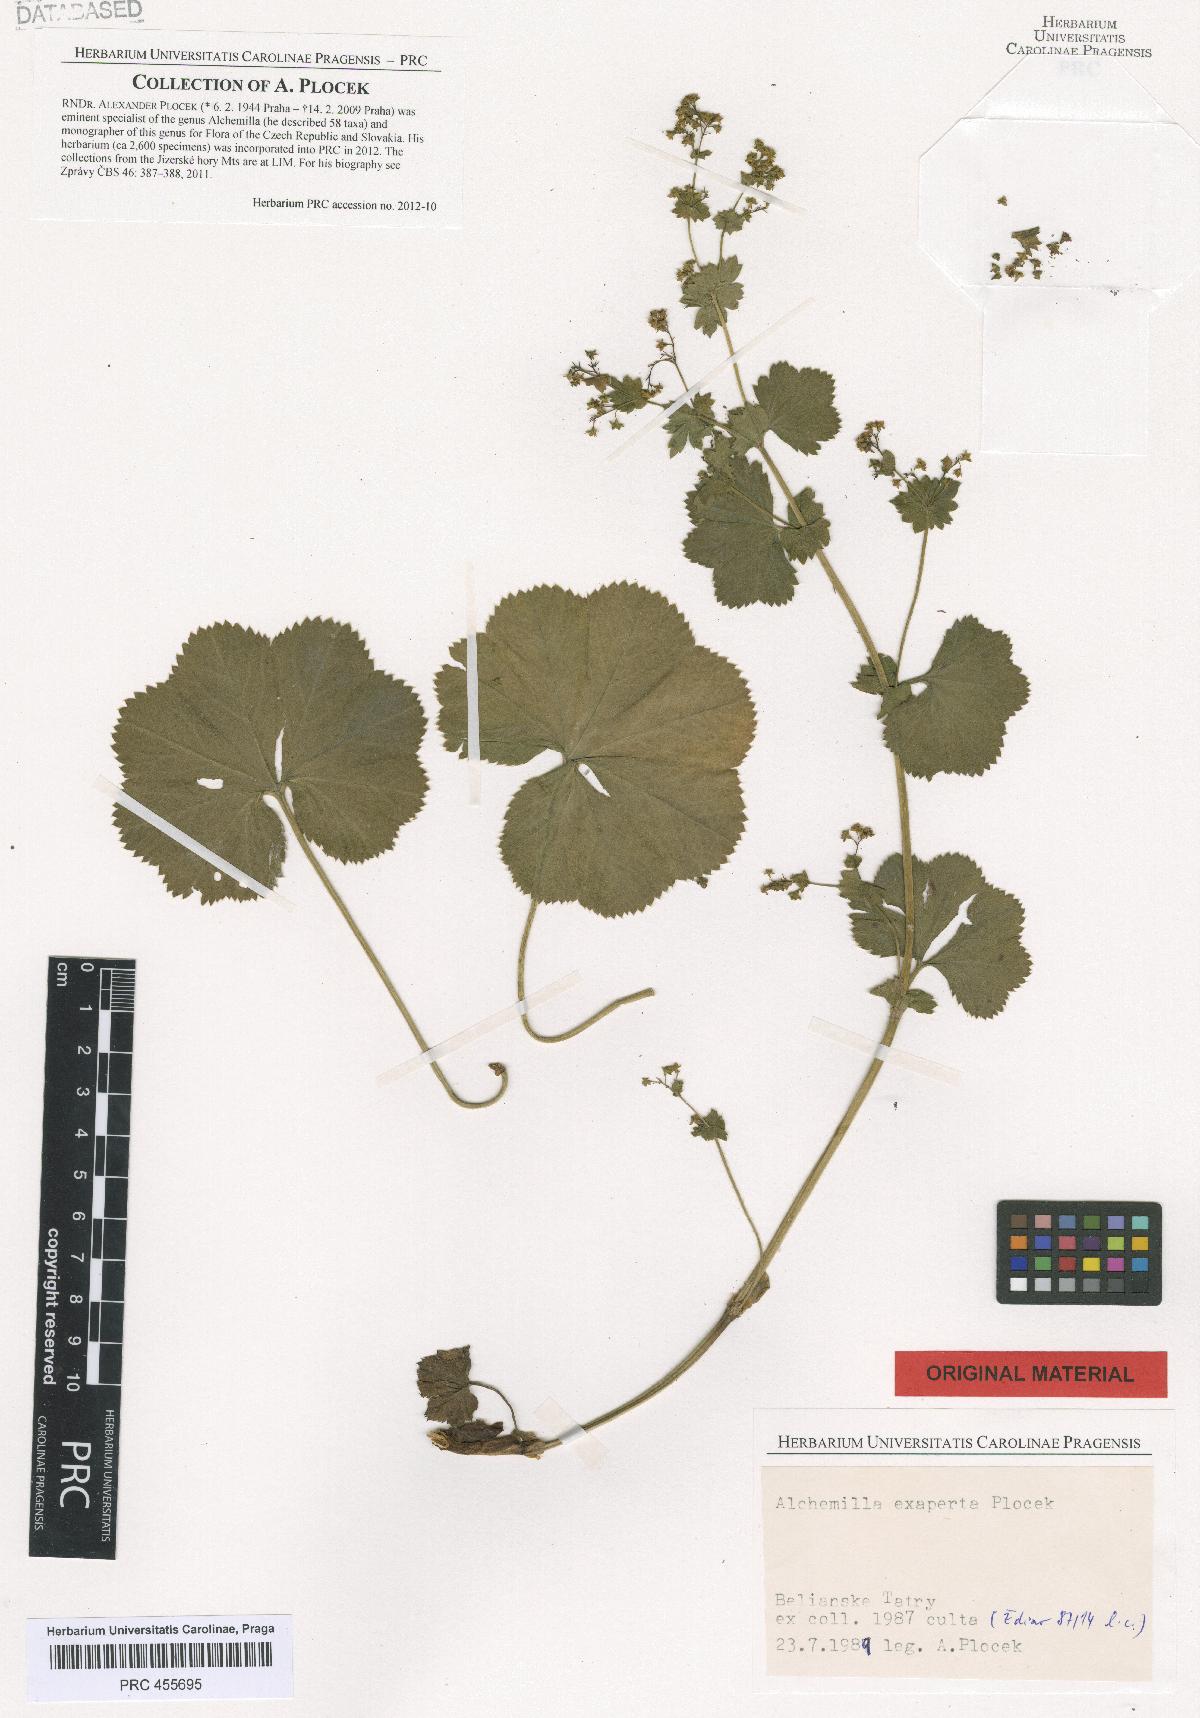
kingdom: Plantae
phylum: Tracheophyta
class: Magnoliopsida
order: Rosales
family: Rosaceae
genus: Alchemilla
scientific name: Alchemilla exaperta
